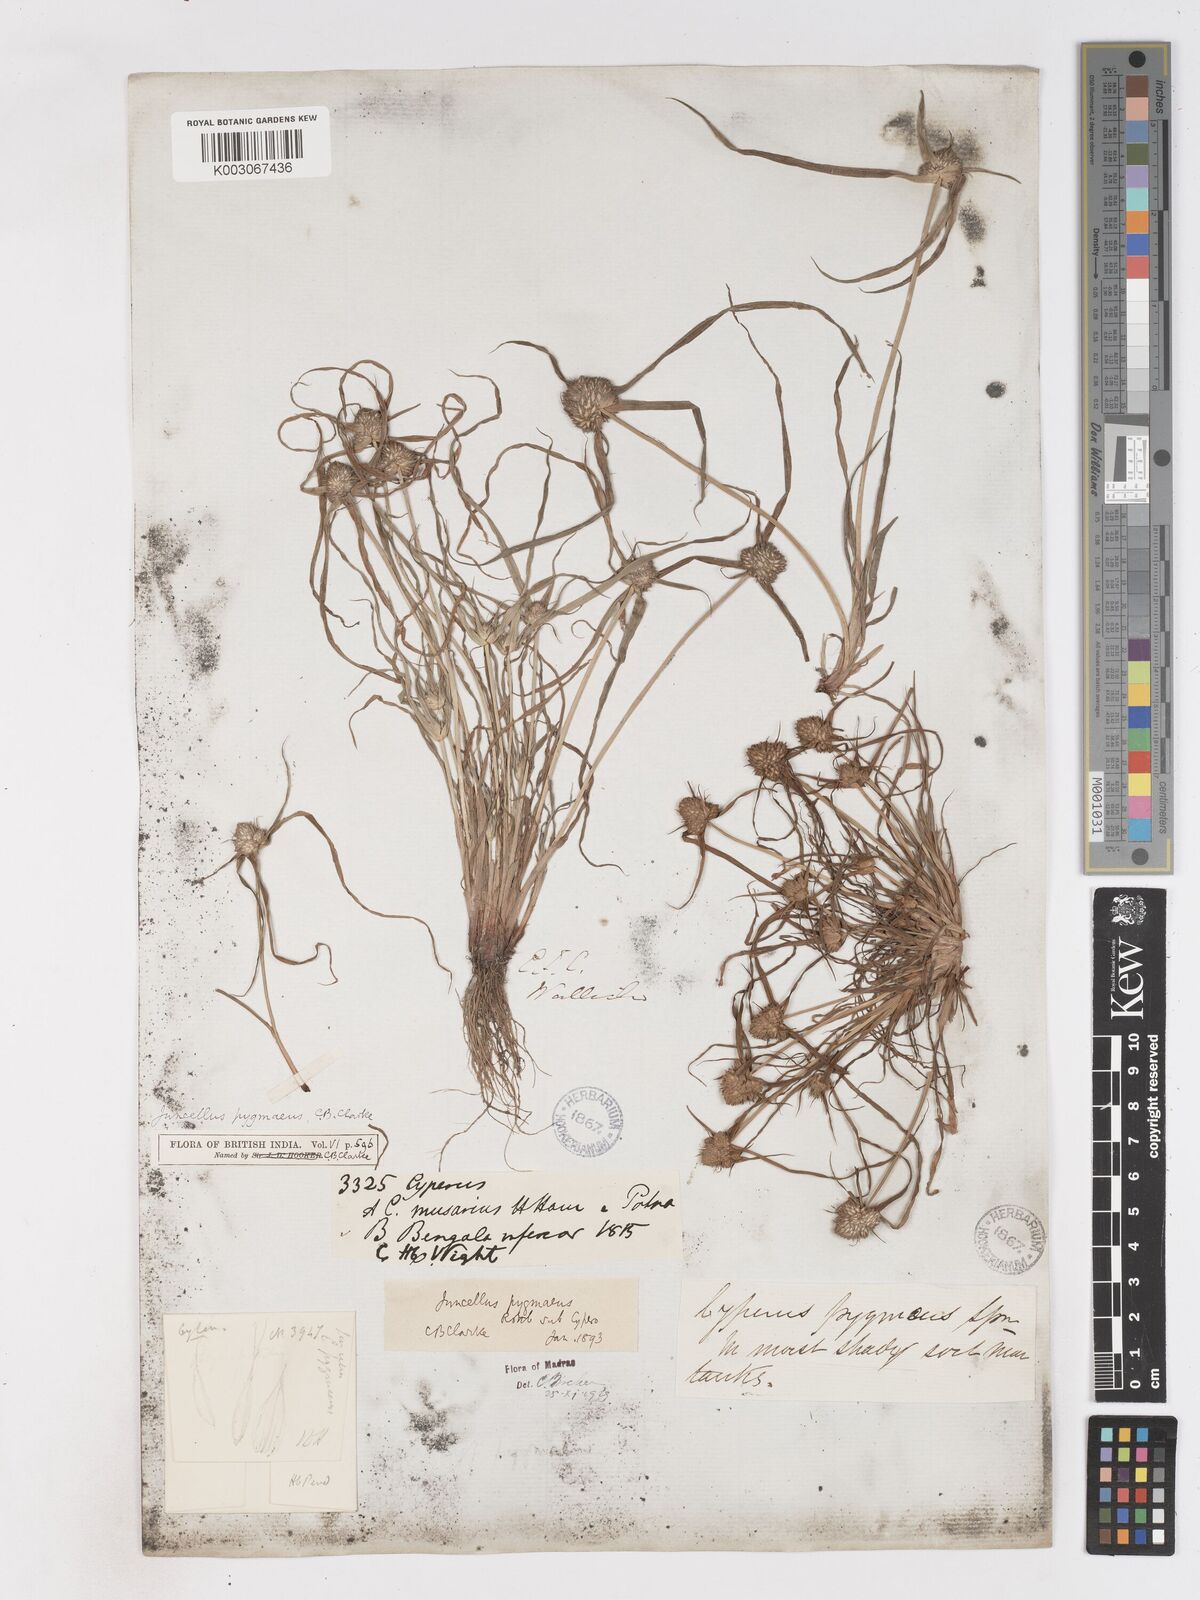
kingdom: Plantae
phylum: Tracheophyta
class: Liliopsida
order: Poales
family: Cyperaceae
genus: Cyperus
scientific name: Cyperus michelianus
